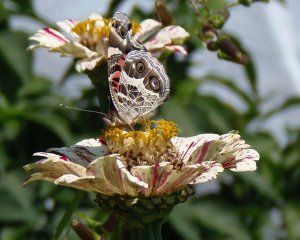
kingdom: Animalia
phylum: Arthropoda
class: Insecta
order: Lepidoptera
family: Nymphalidae
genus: Vanessa
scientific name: Vanessa virginiensis
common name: American Lady
